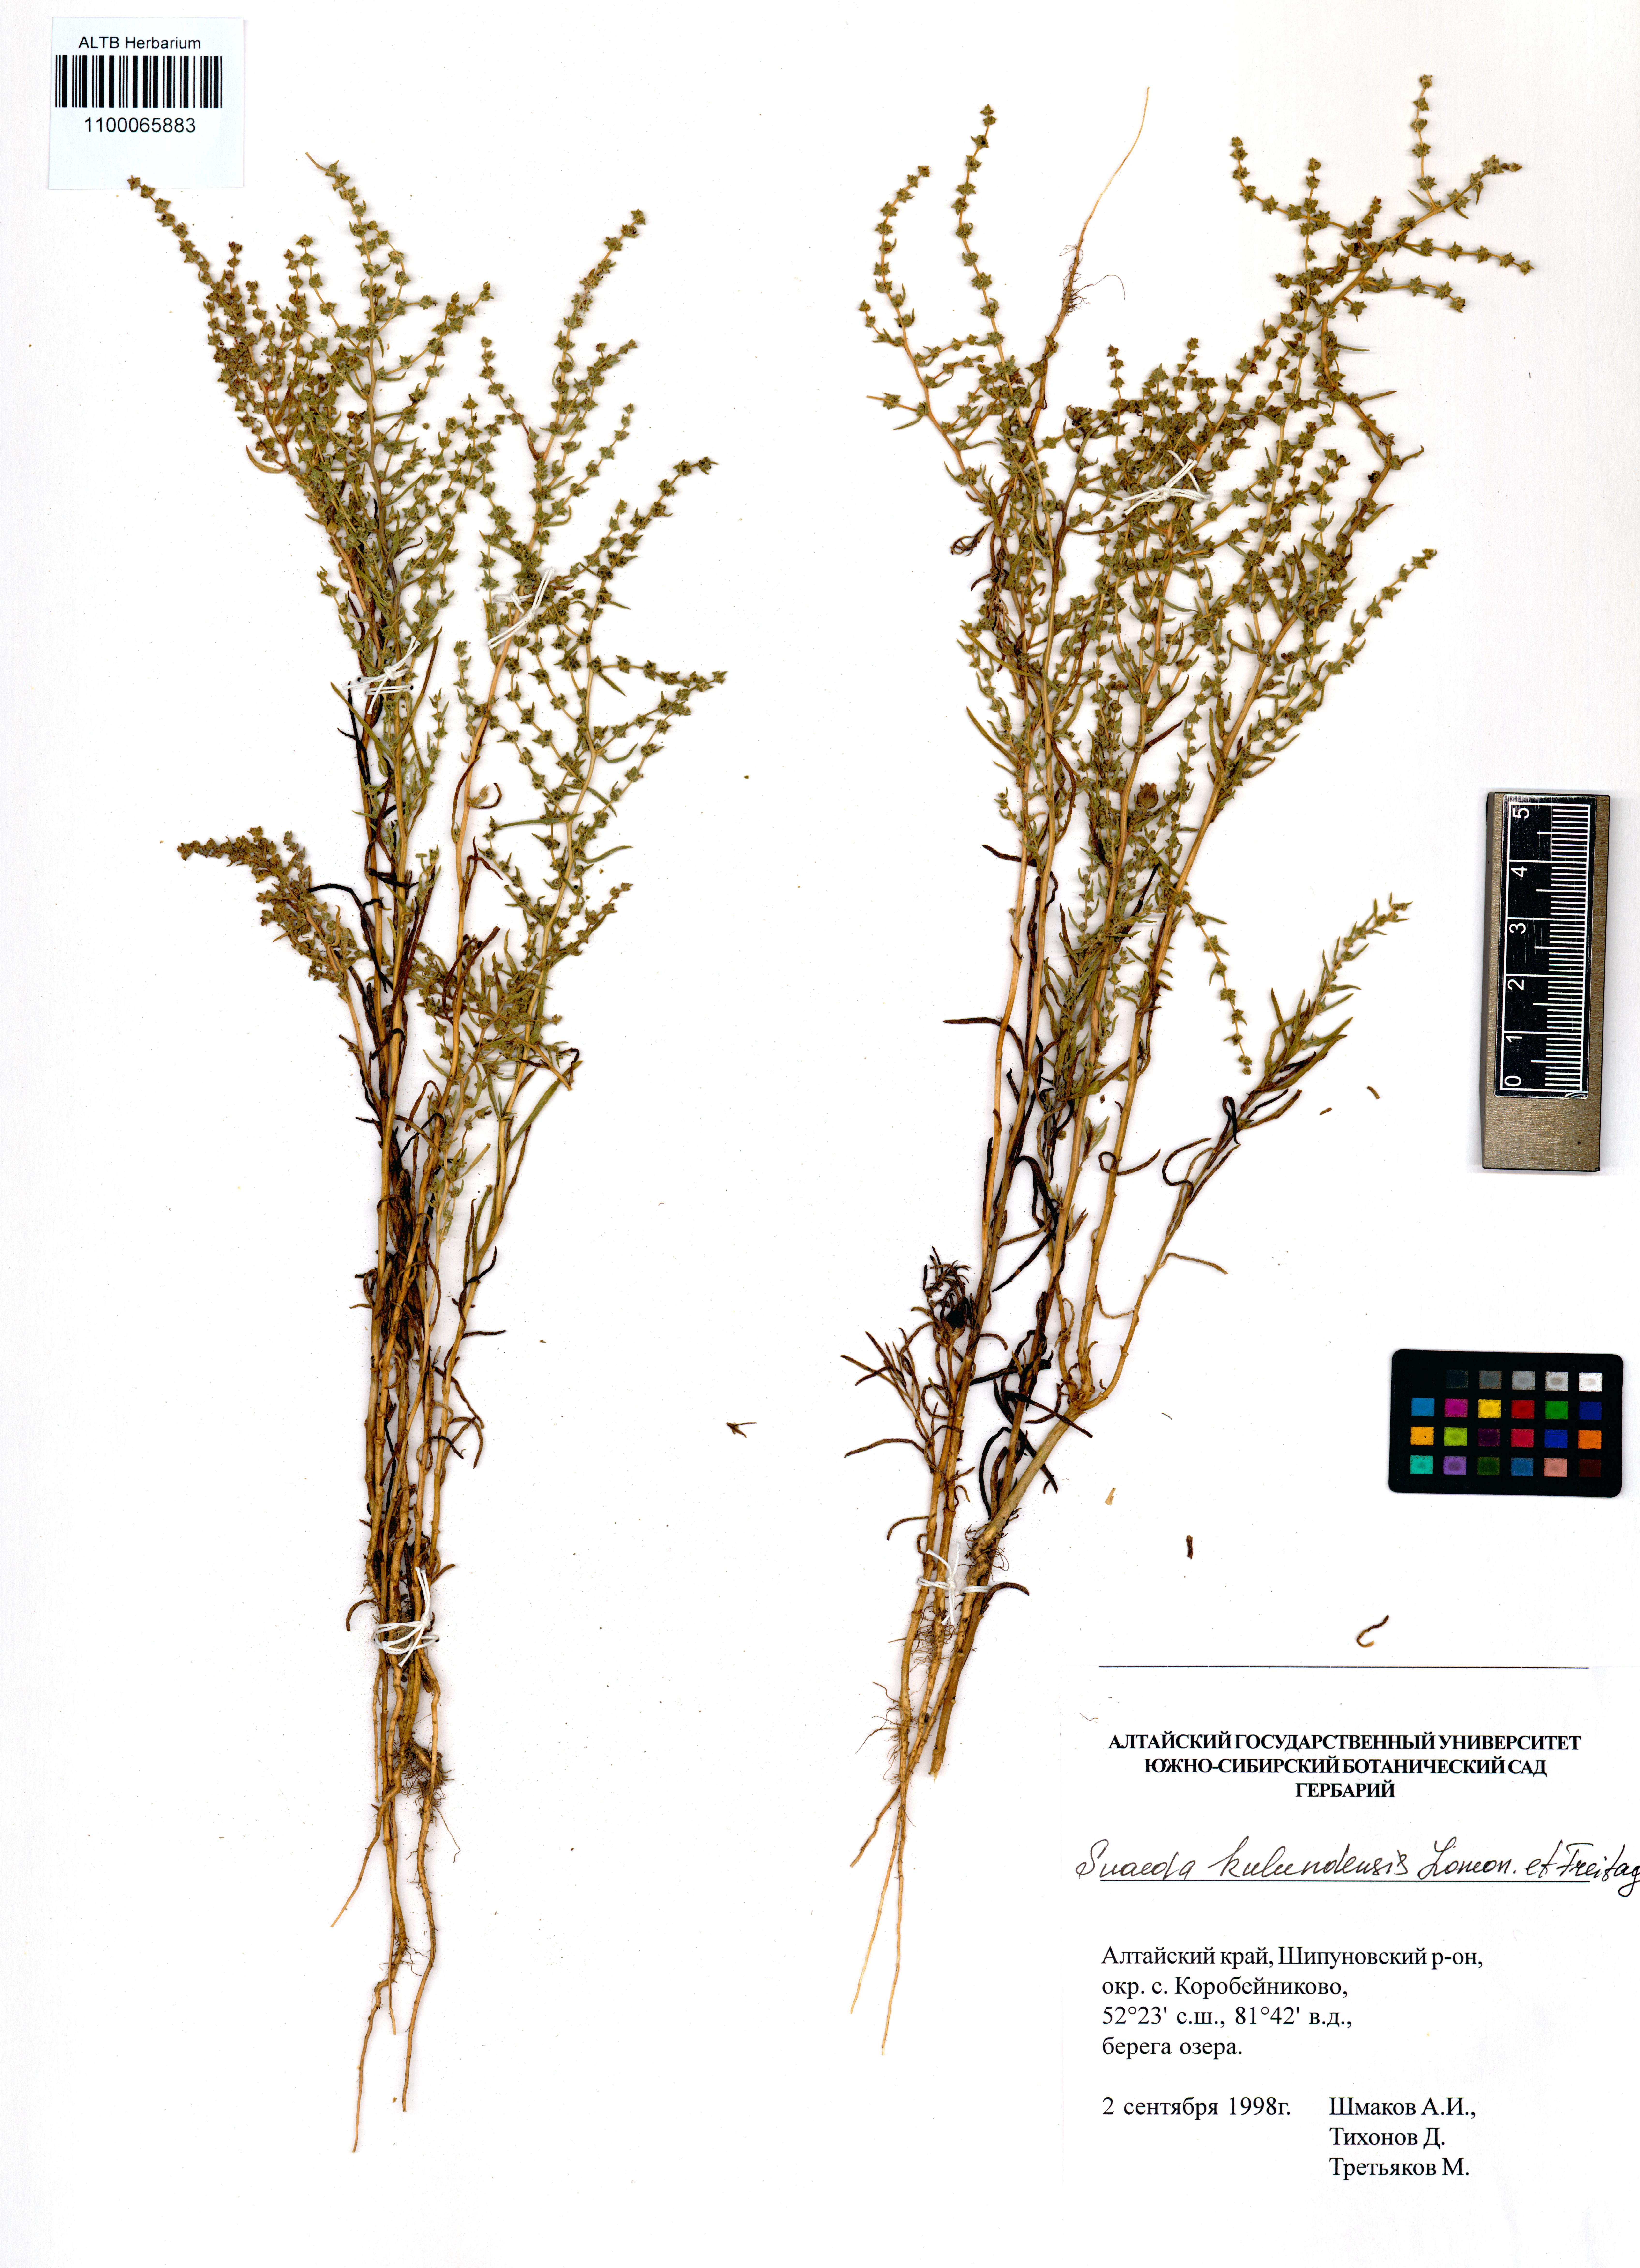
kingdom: Plantae
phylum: Tracheophyta
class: Magnoliopsida
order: Caryophyllales
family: Amaranthaceae
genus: Suaeda
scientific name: Suaeda kulundensis
